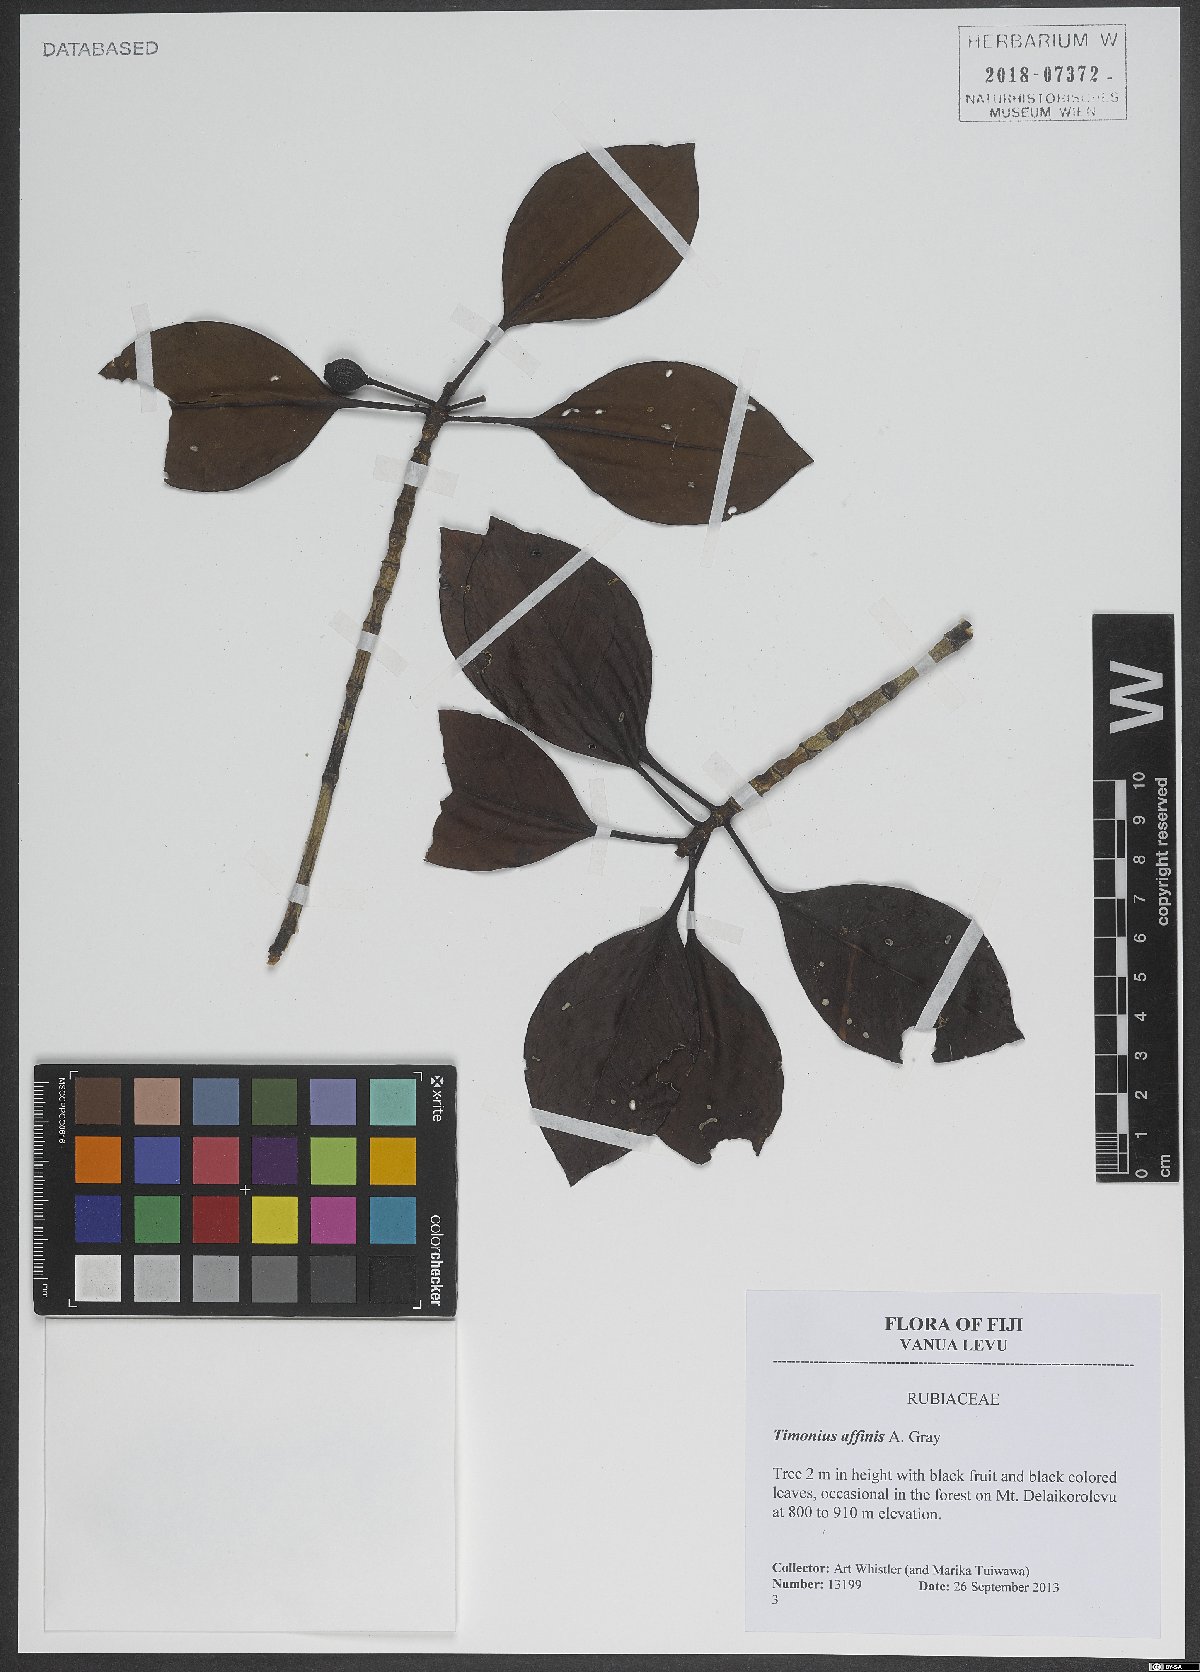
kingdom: Plantae
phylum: Tracheophyta
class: Magnoliopsida
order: Gentianales
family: Rubiaceae
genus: Timonius
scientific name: Timonius affinis
